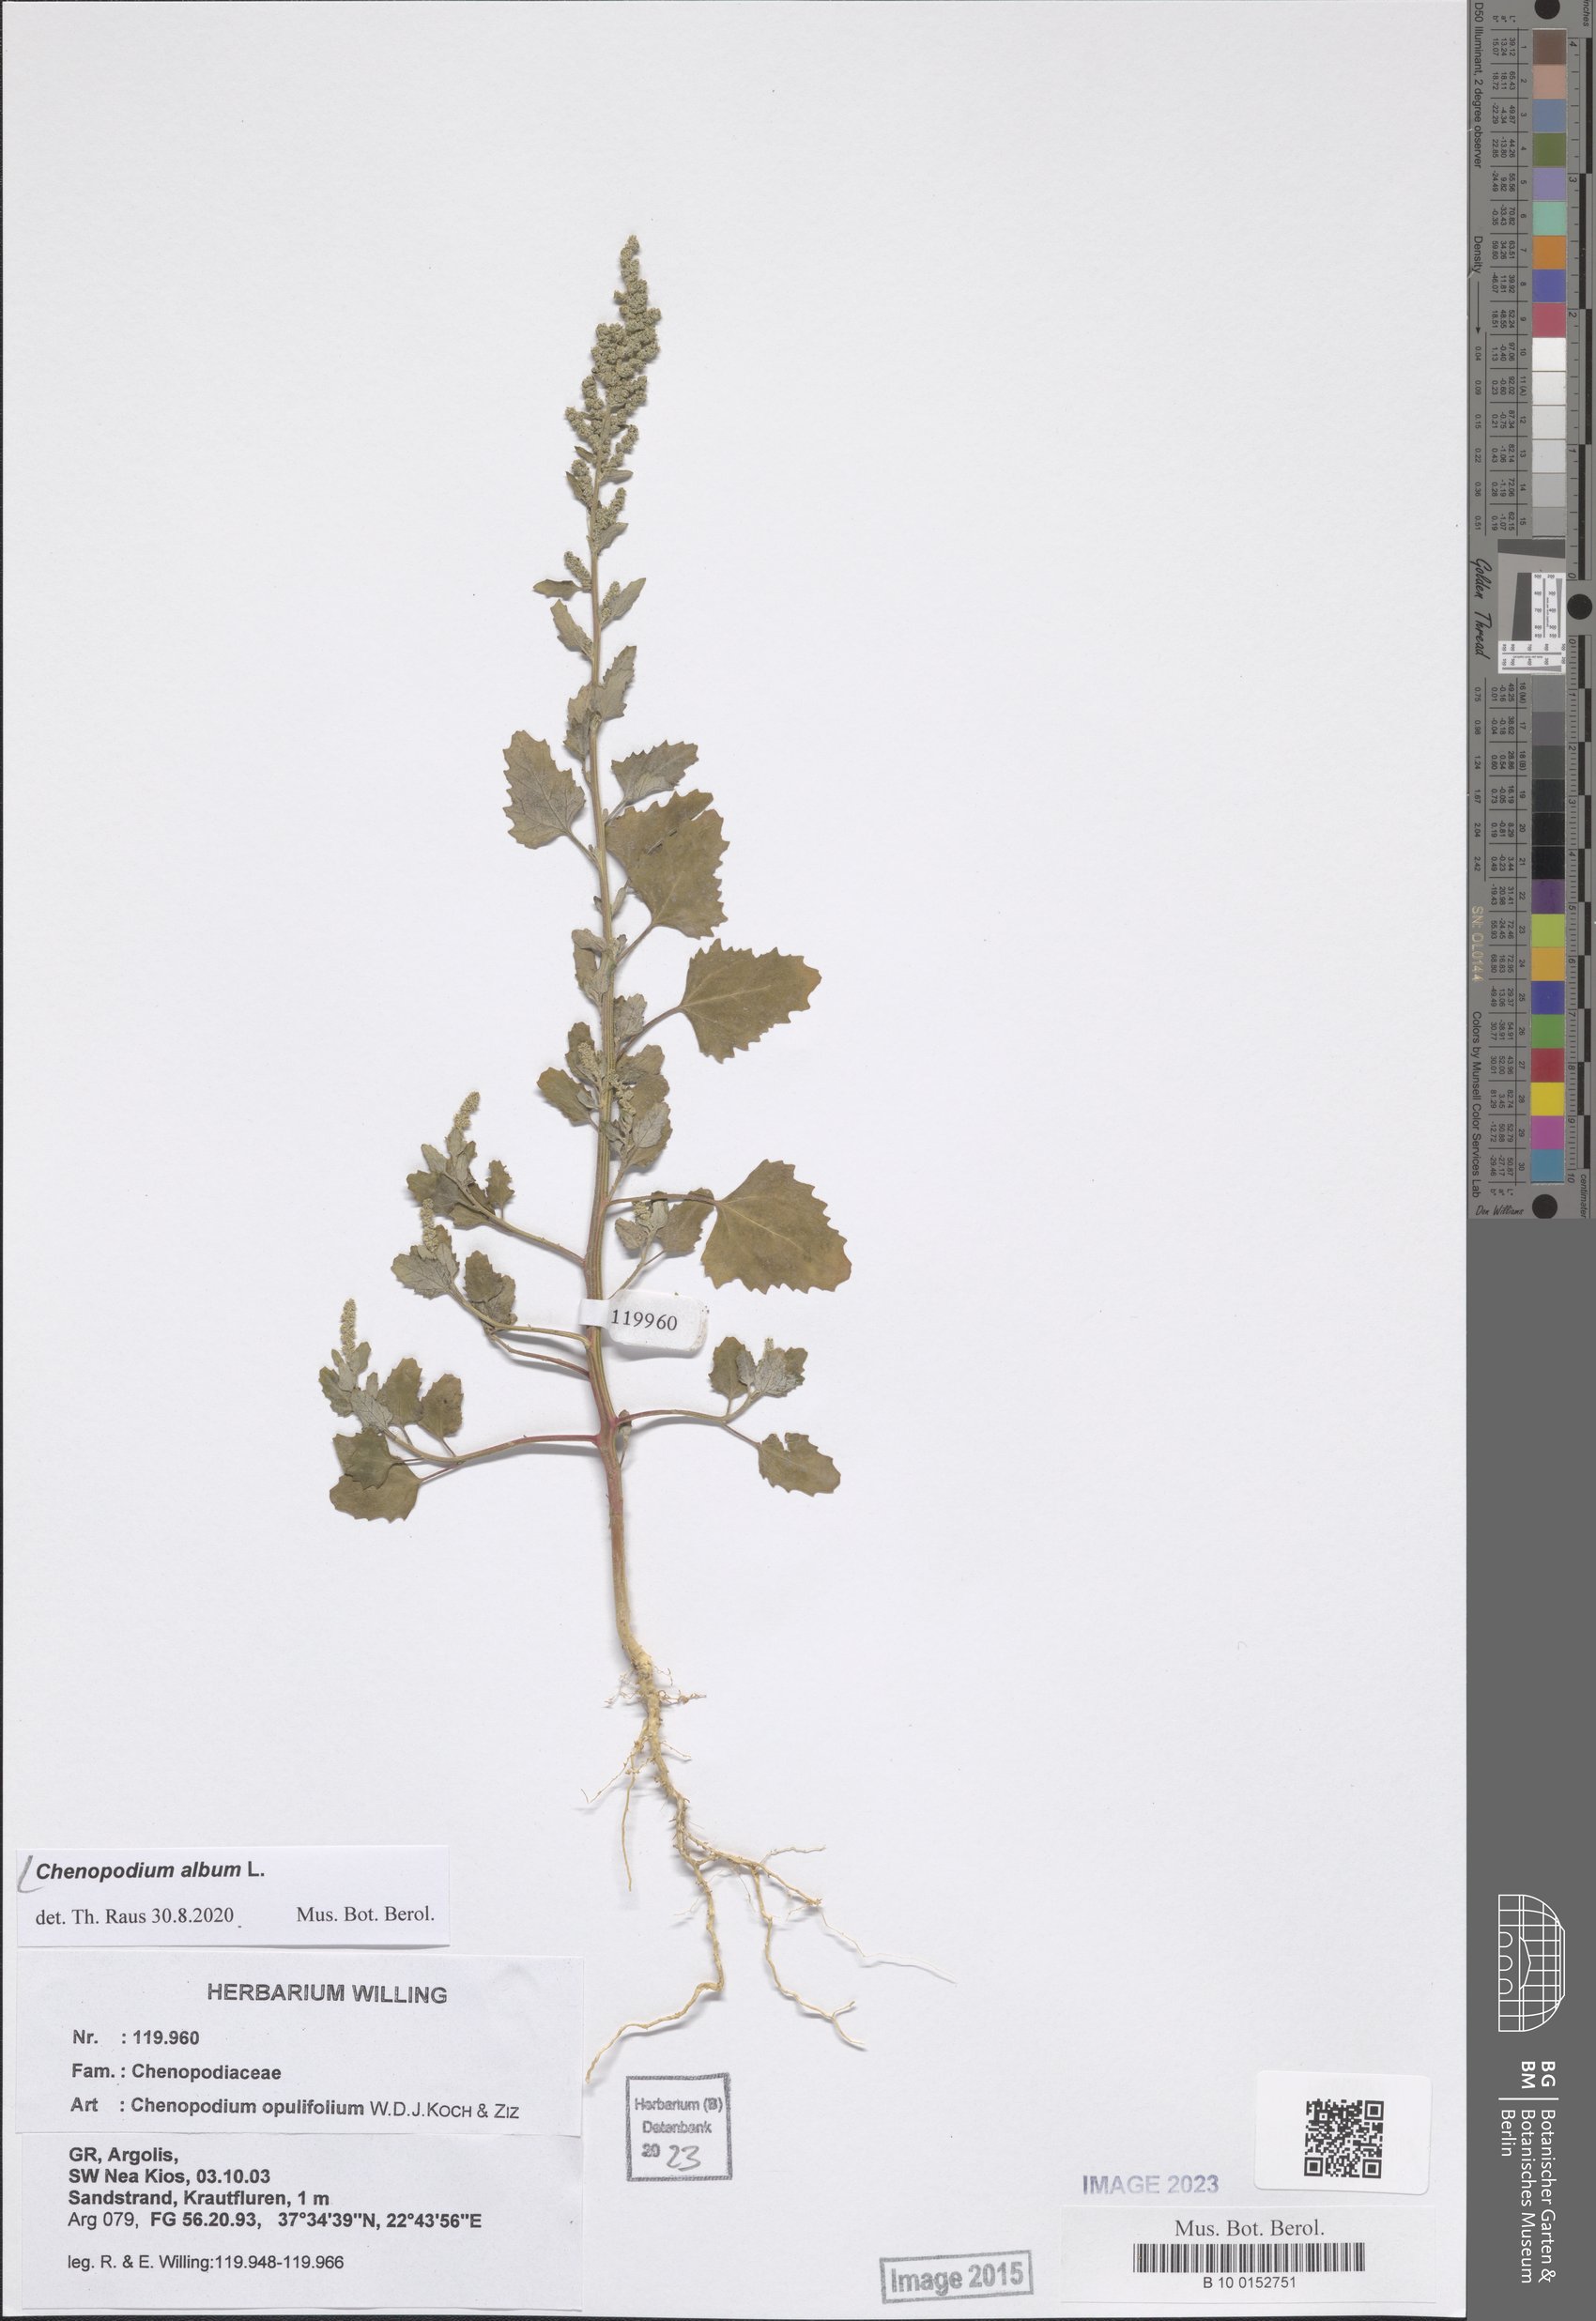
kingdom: Plantae
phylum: Tracheophyta
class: Magnoliopsida
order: Caryophyllales
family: Amaranthaceae
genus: Chenopodium
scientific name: Chenopodium album
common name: Fat-hen
